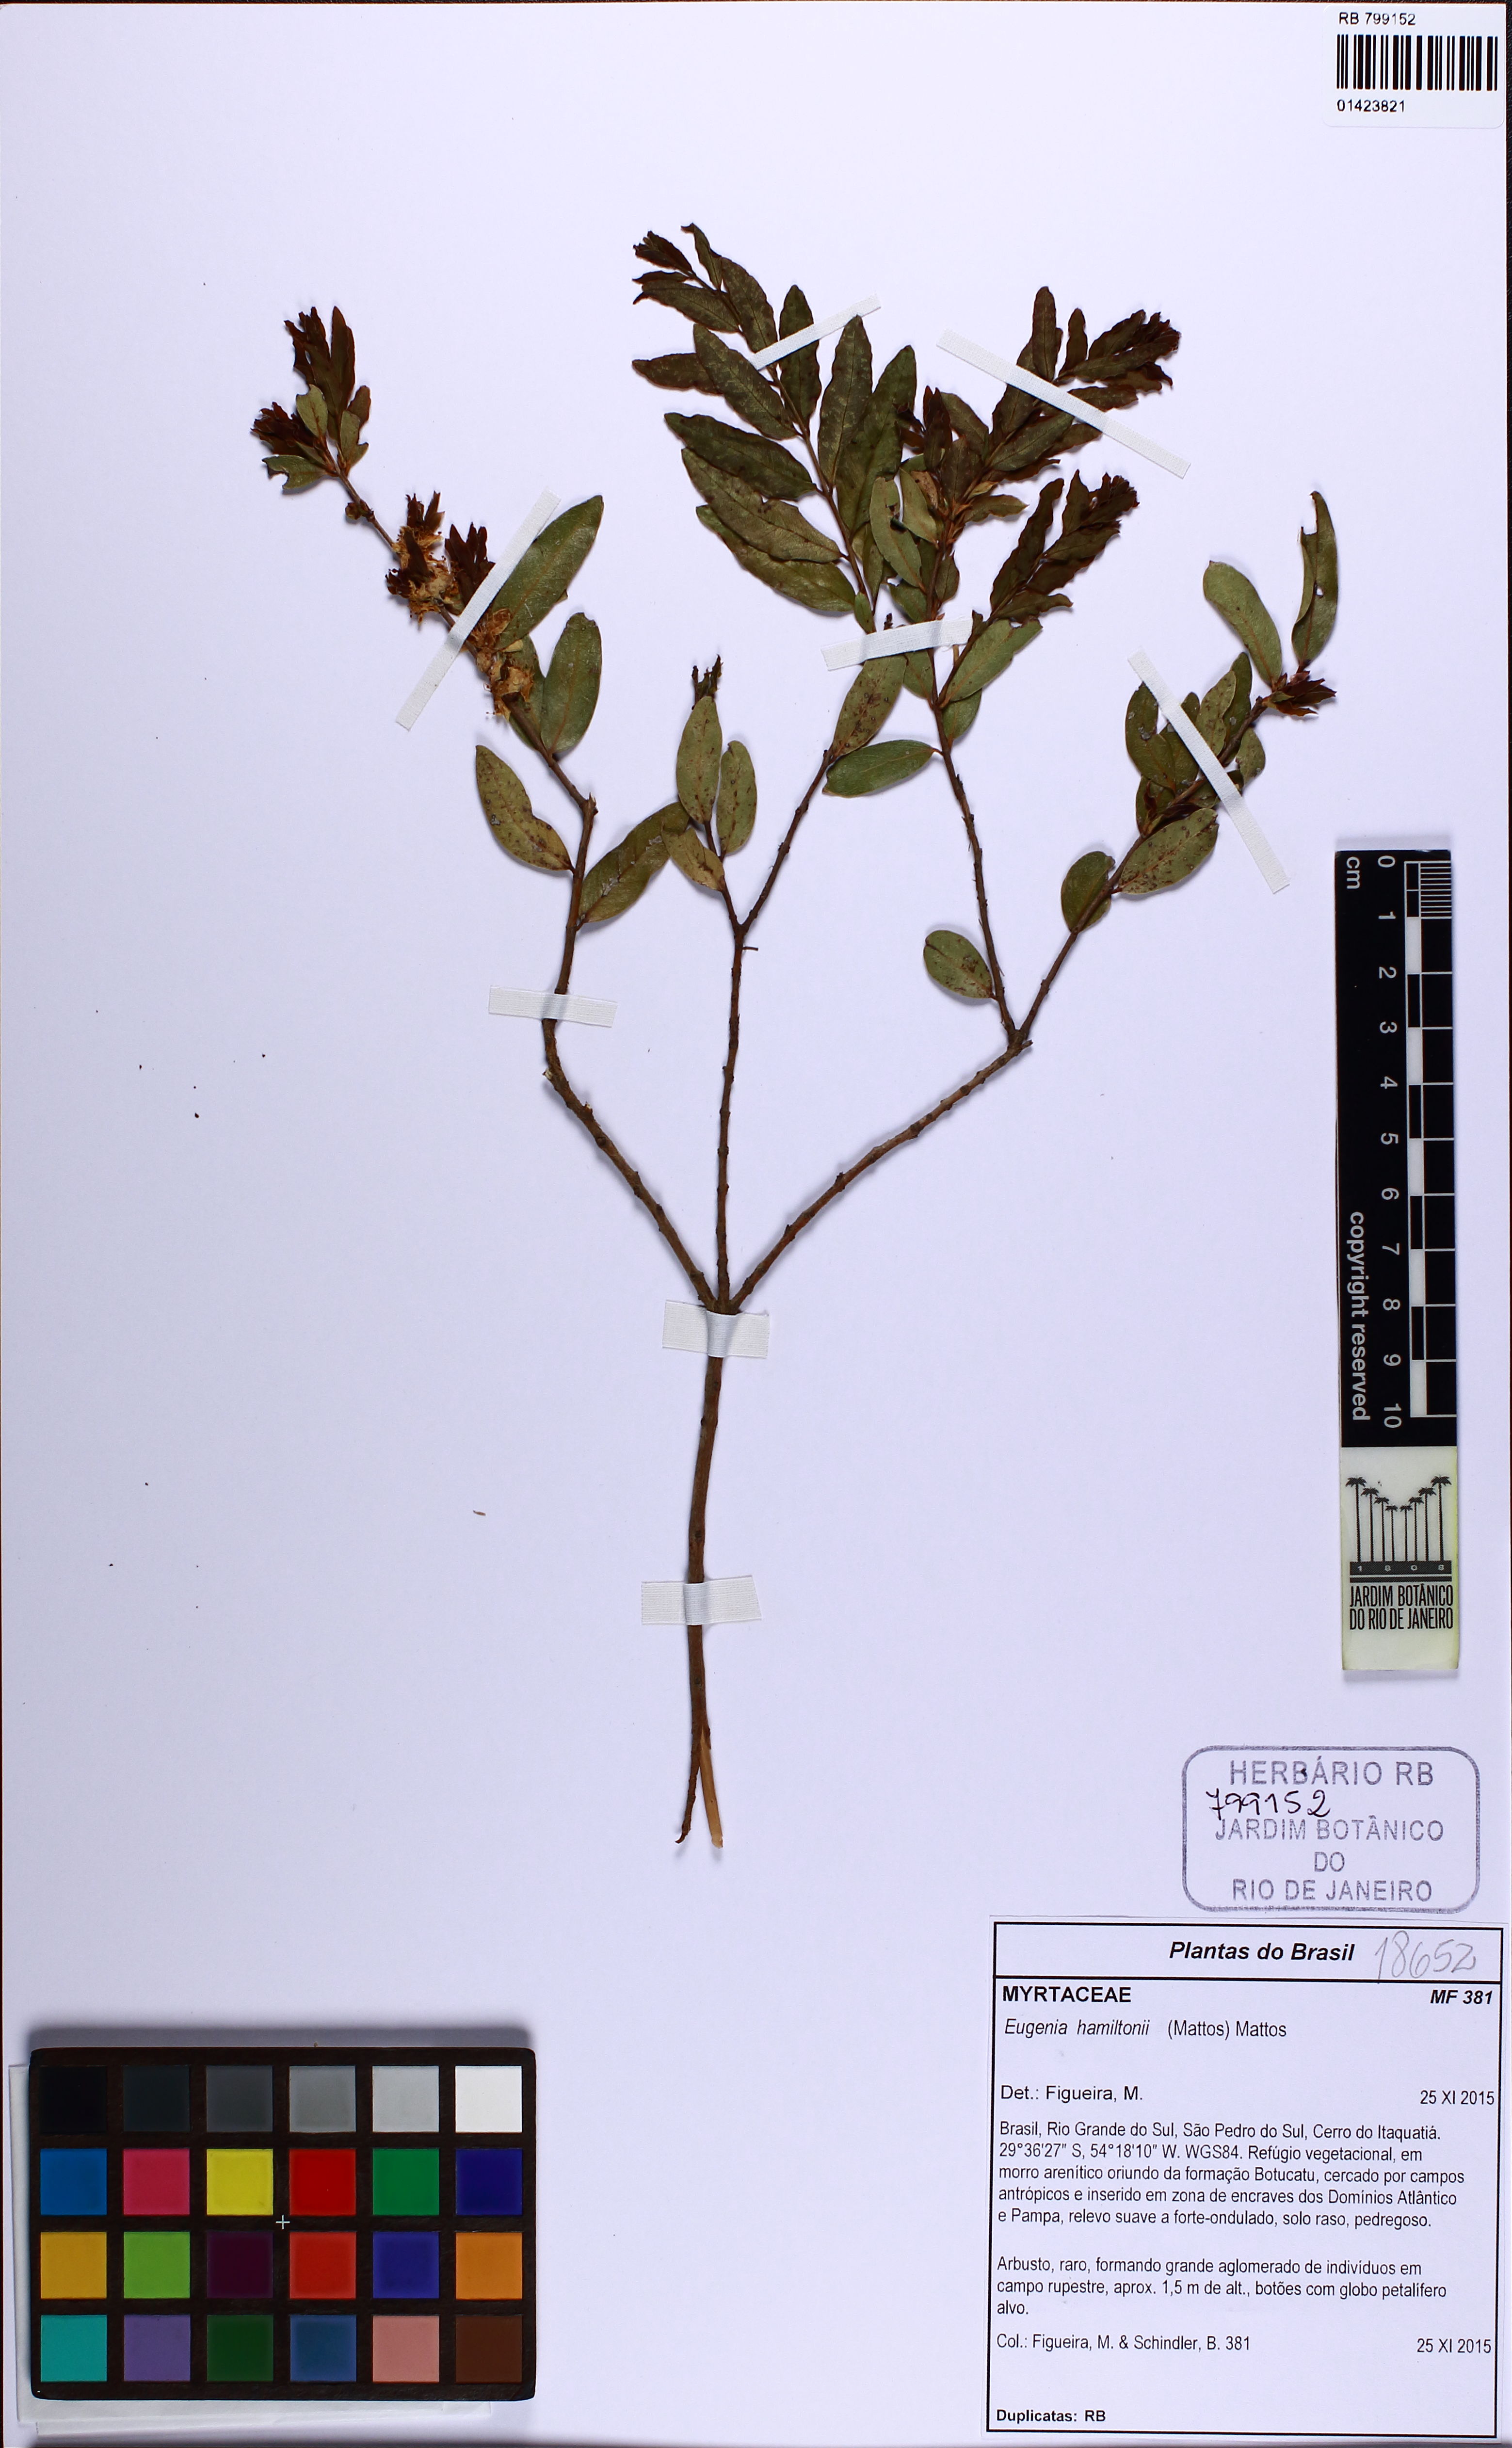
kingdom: Plantae
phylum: Tracheophyta
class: Magnoliopsida
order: Myrtales
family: Myrtaceae
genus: Eugenia
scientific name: Eugenia hamiltonii
